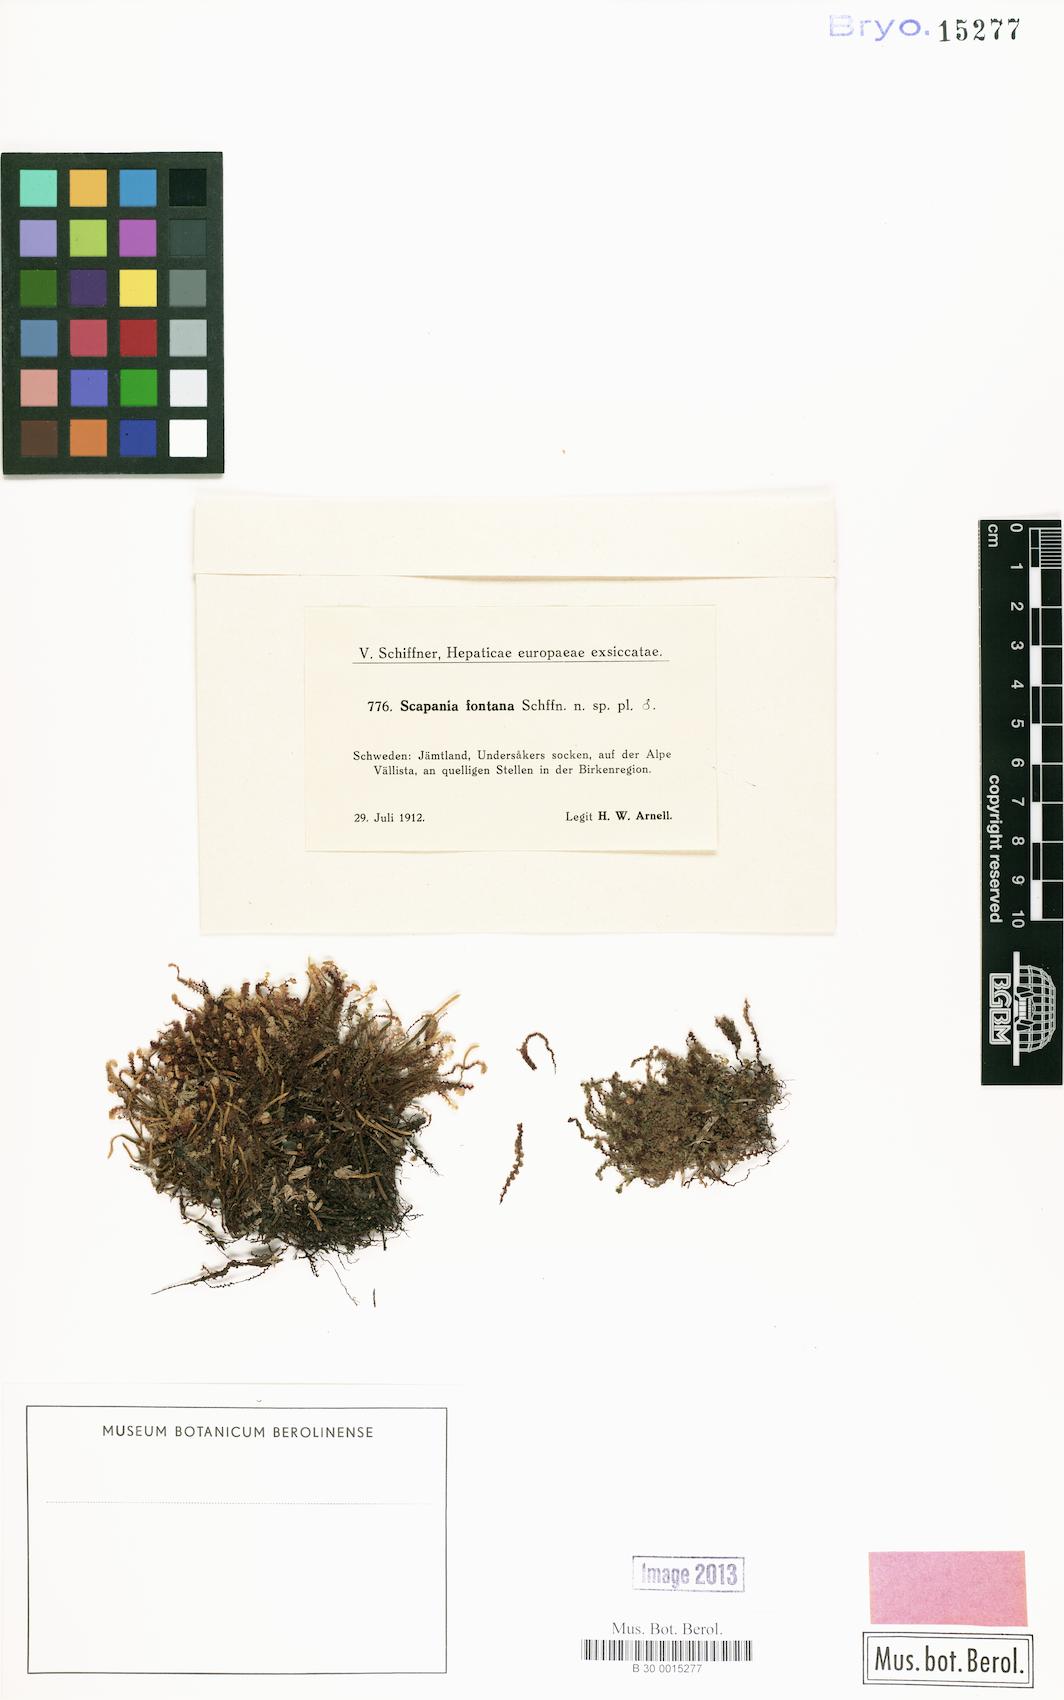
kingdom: Plantae
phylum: Marchantiophyta
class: Jungermanniopsida
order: Jungermanniales
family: Scapaniaceae
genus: Scapania
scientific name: Scapania paludosa
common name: Floppy earwort
